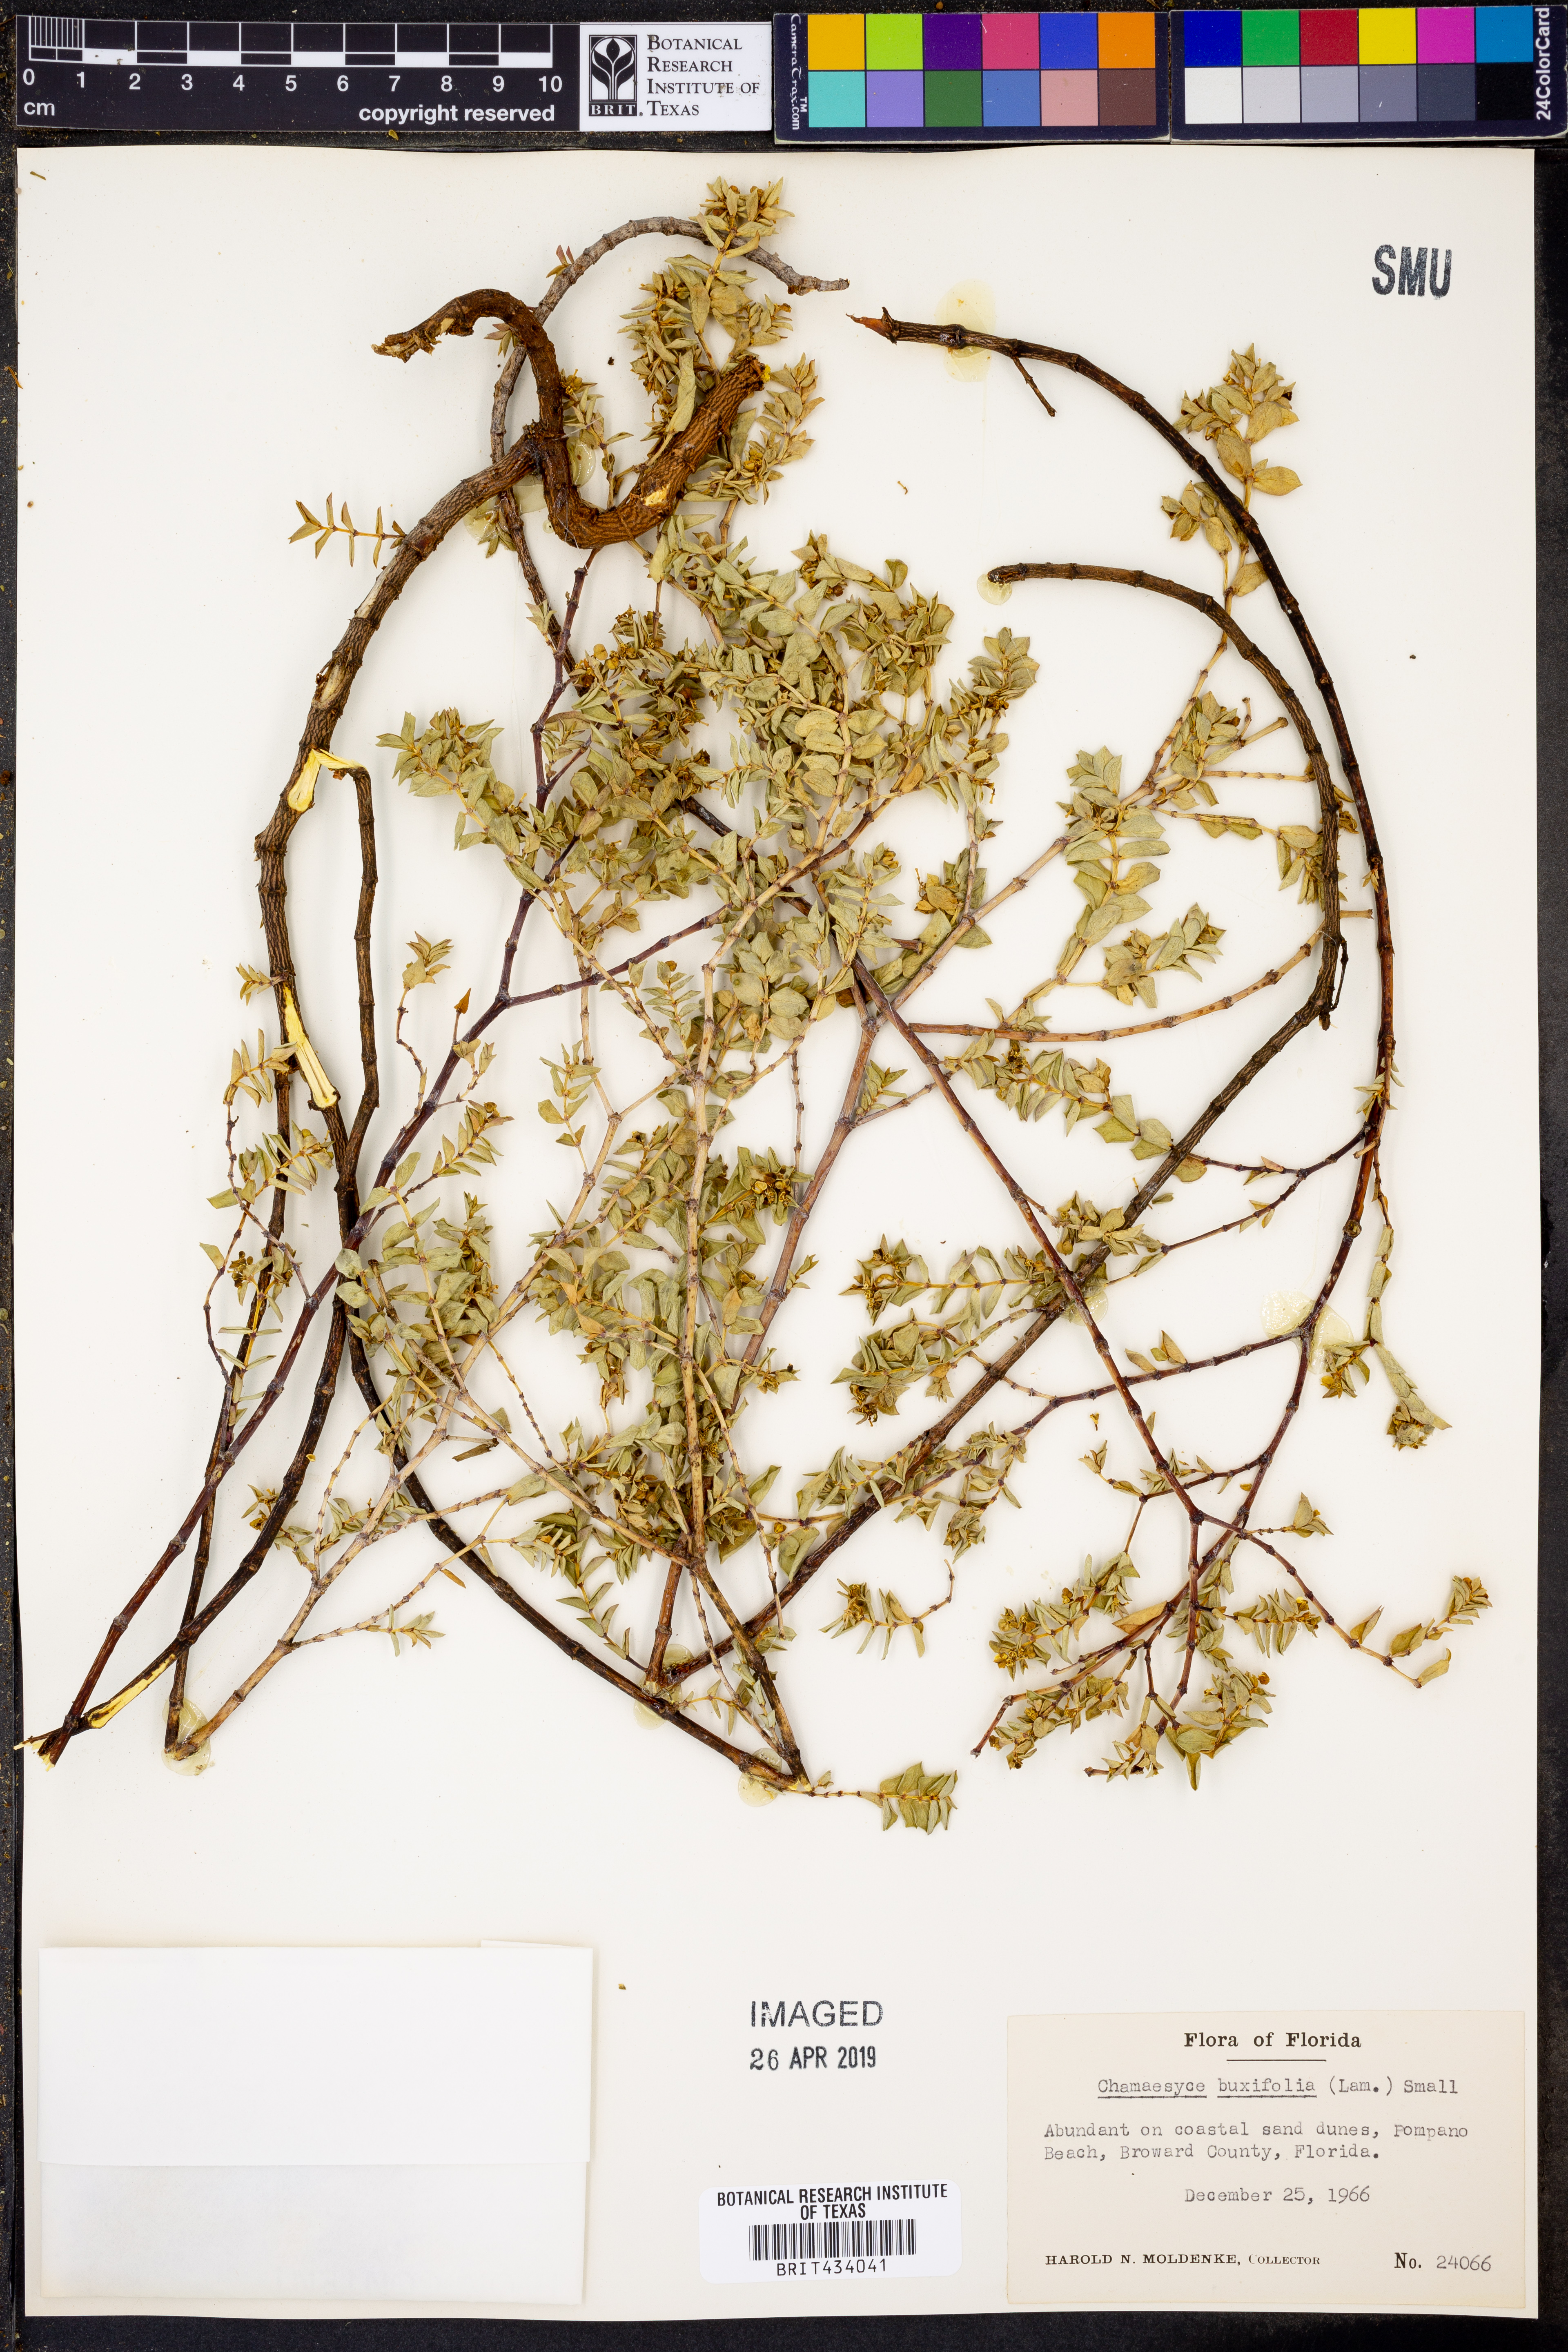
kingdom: Plantae
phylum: Tracheophyta
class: Magnoliopsida
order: Malpighiales
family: Euphorbiaceae
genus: Euphorbia
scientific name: Euphorbia mesembryanthemifolia
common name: Coastal beach sandmat
